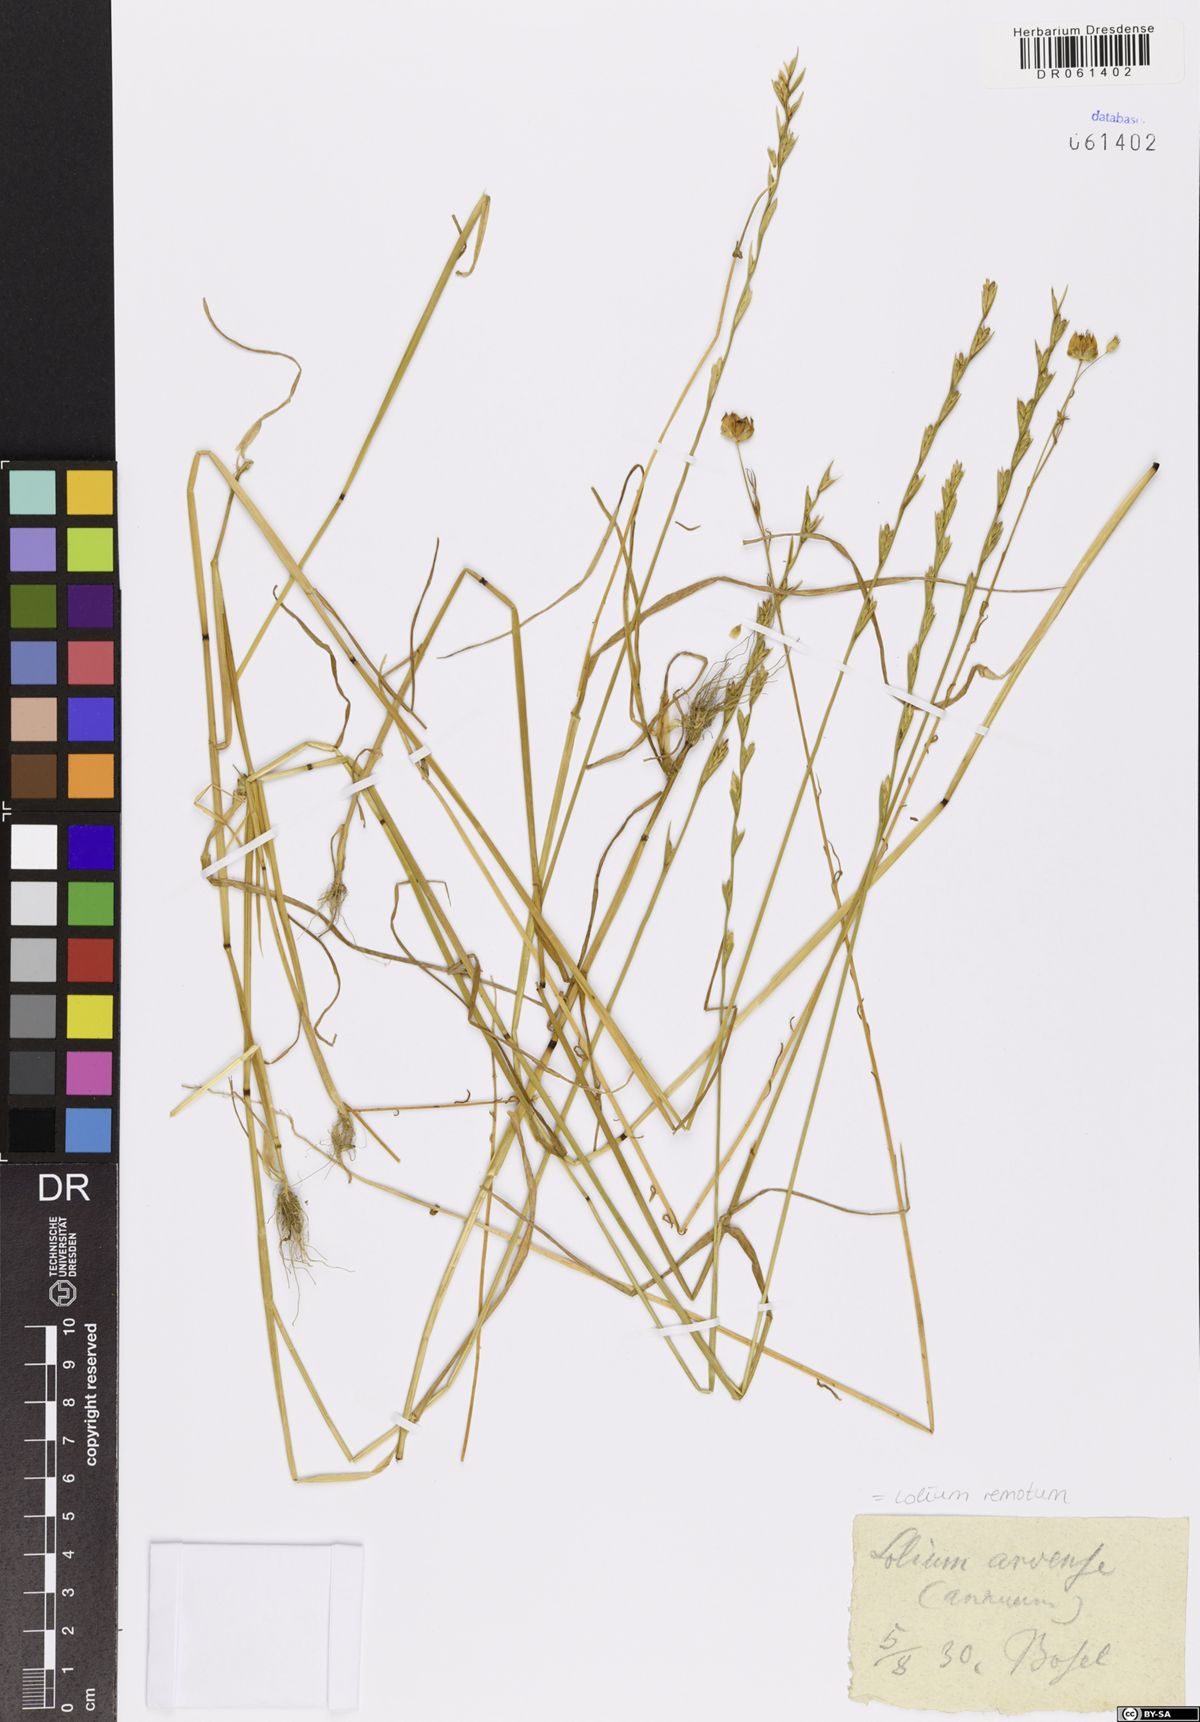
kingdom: Plantae
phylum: Tracheophyta
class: Liliopsida
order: Poales
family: Poaceae
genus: Lolium
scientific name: Lolium remotum
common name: Flaxfield rye-grass
